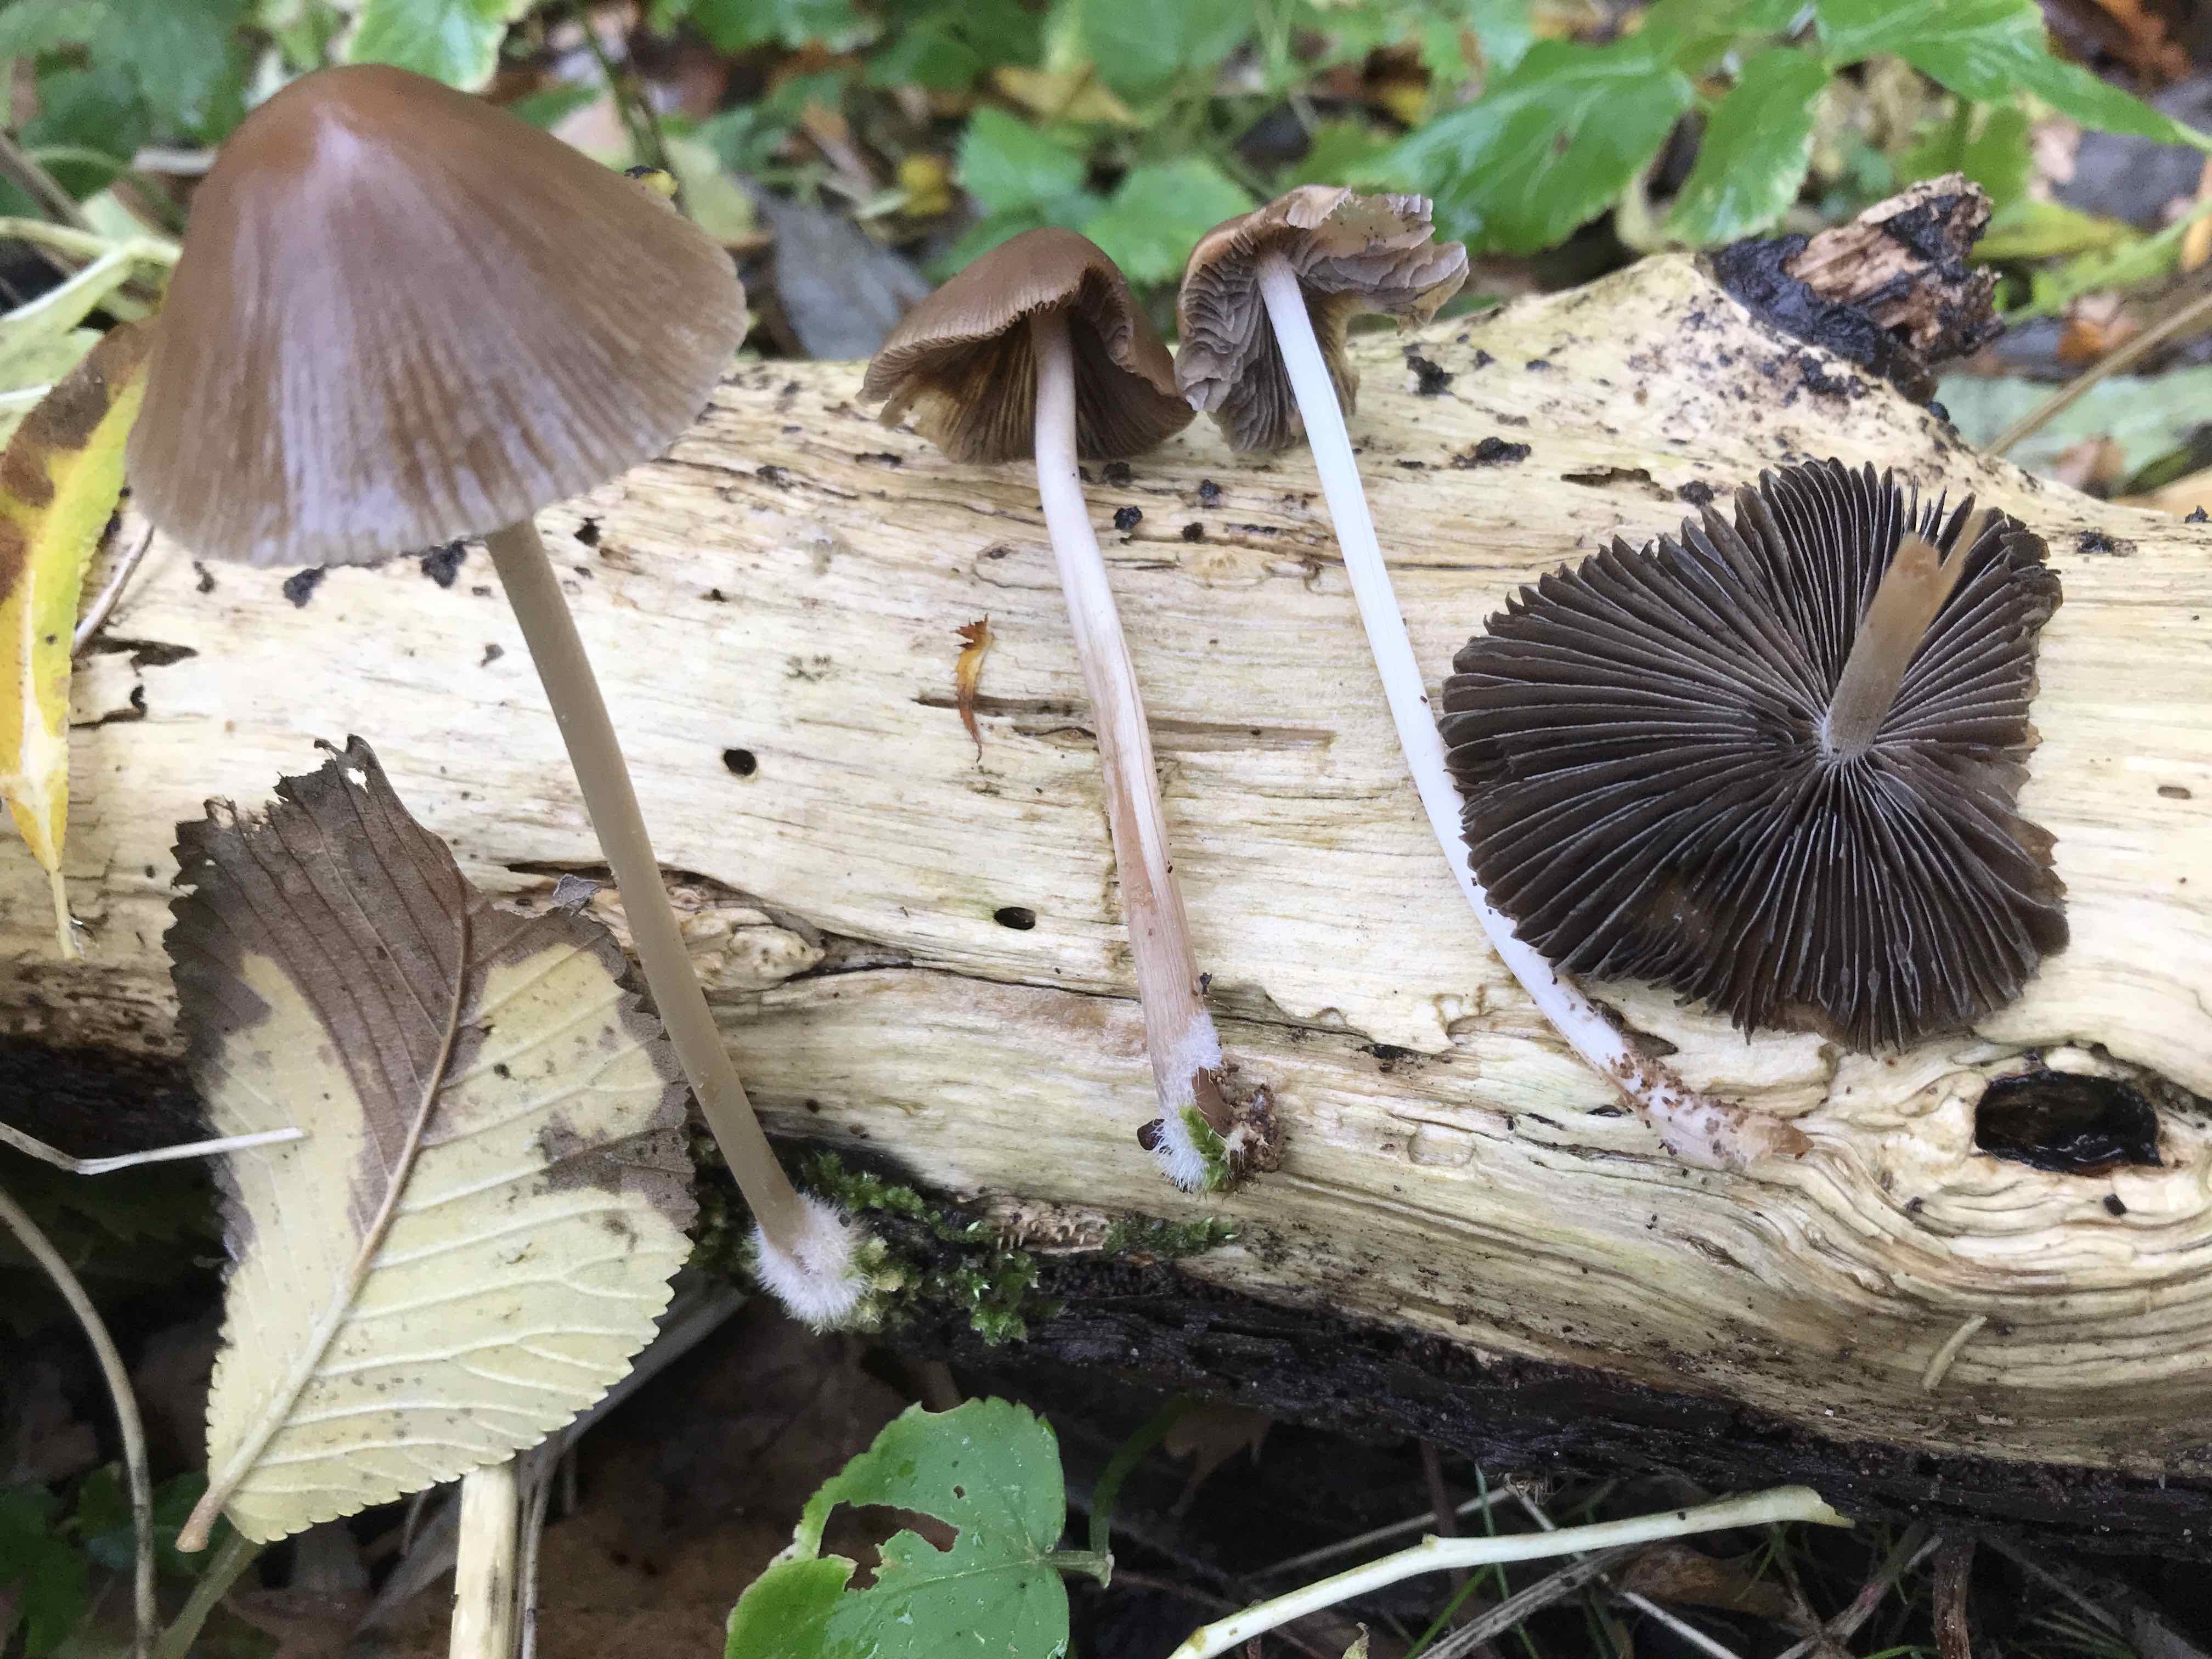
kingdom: Fungi
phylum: Basidiomycota
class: Agaricomycetes
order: Agaricales
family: Psathyrellaceae
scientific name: Psathyrellaceae
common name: mørkhatfamilien
